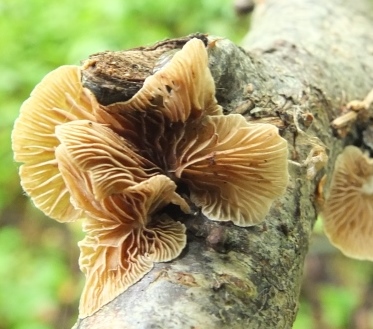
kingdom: Fungi
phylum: Basidiomycota
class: Agaricomycetes
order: Agaricales
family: Crepidotaceae
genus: Crepidotus
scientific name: Crepidotus autochthonus
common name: skæv muslingesvamp
